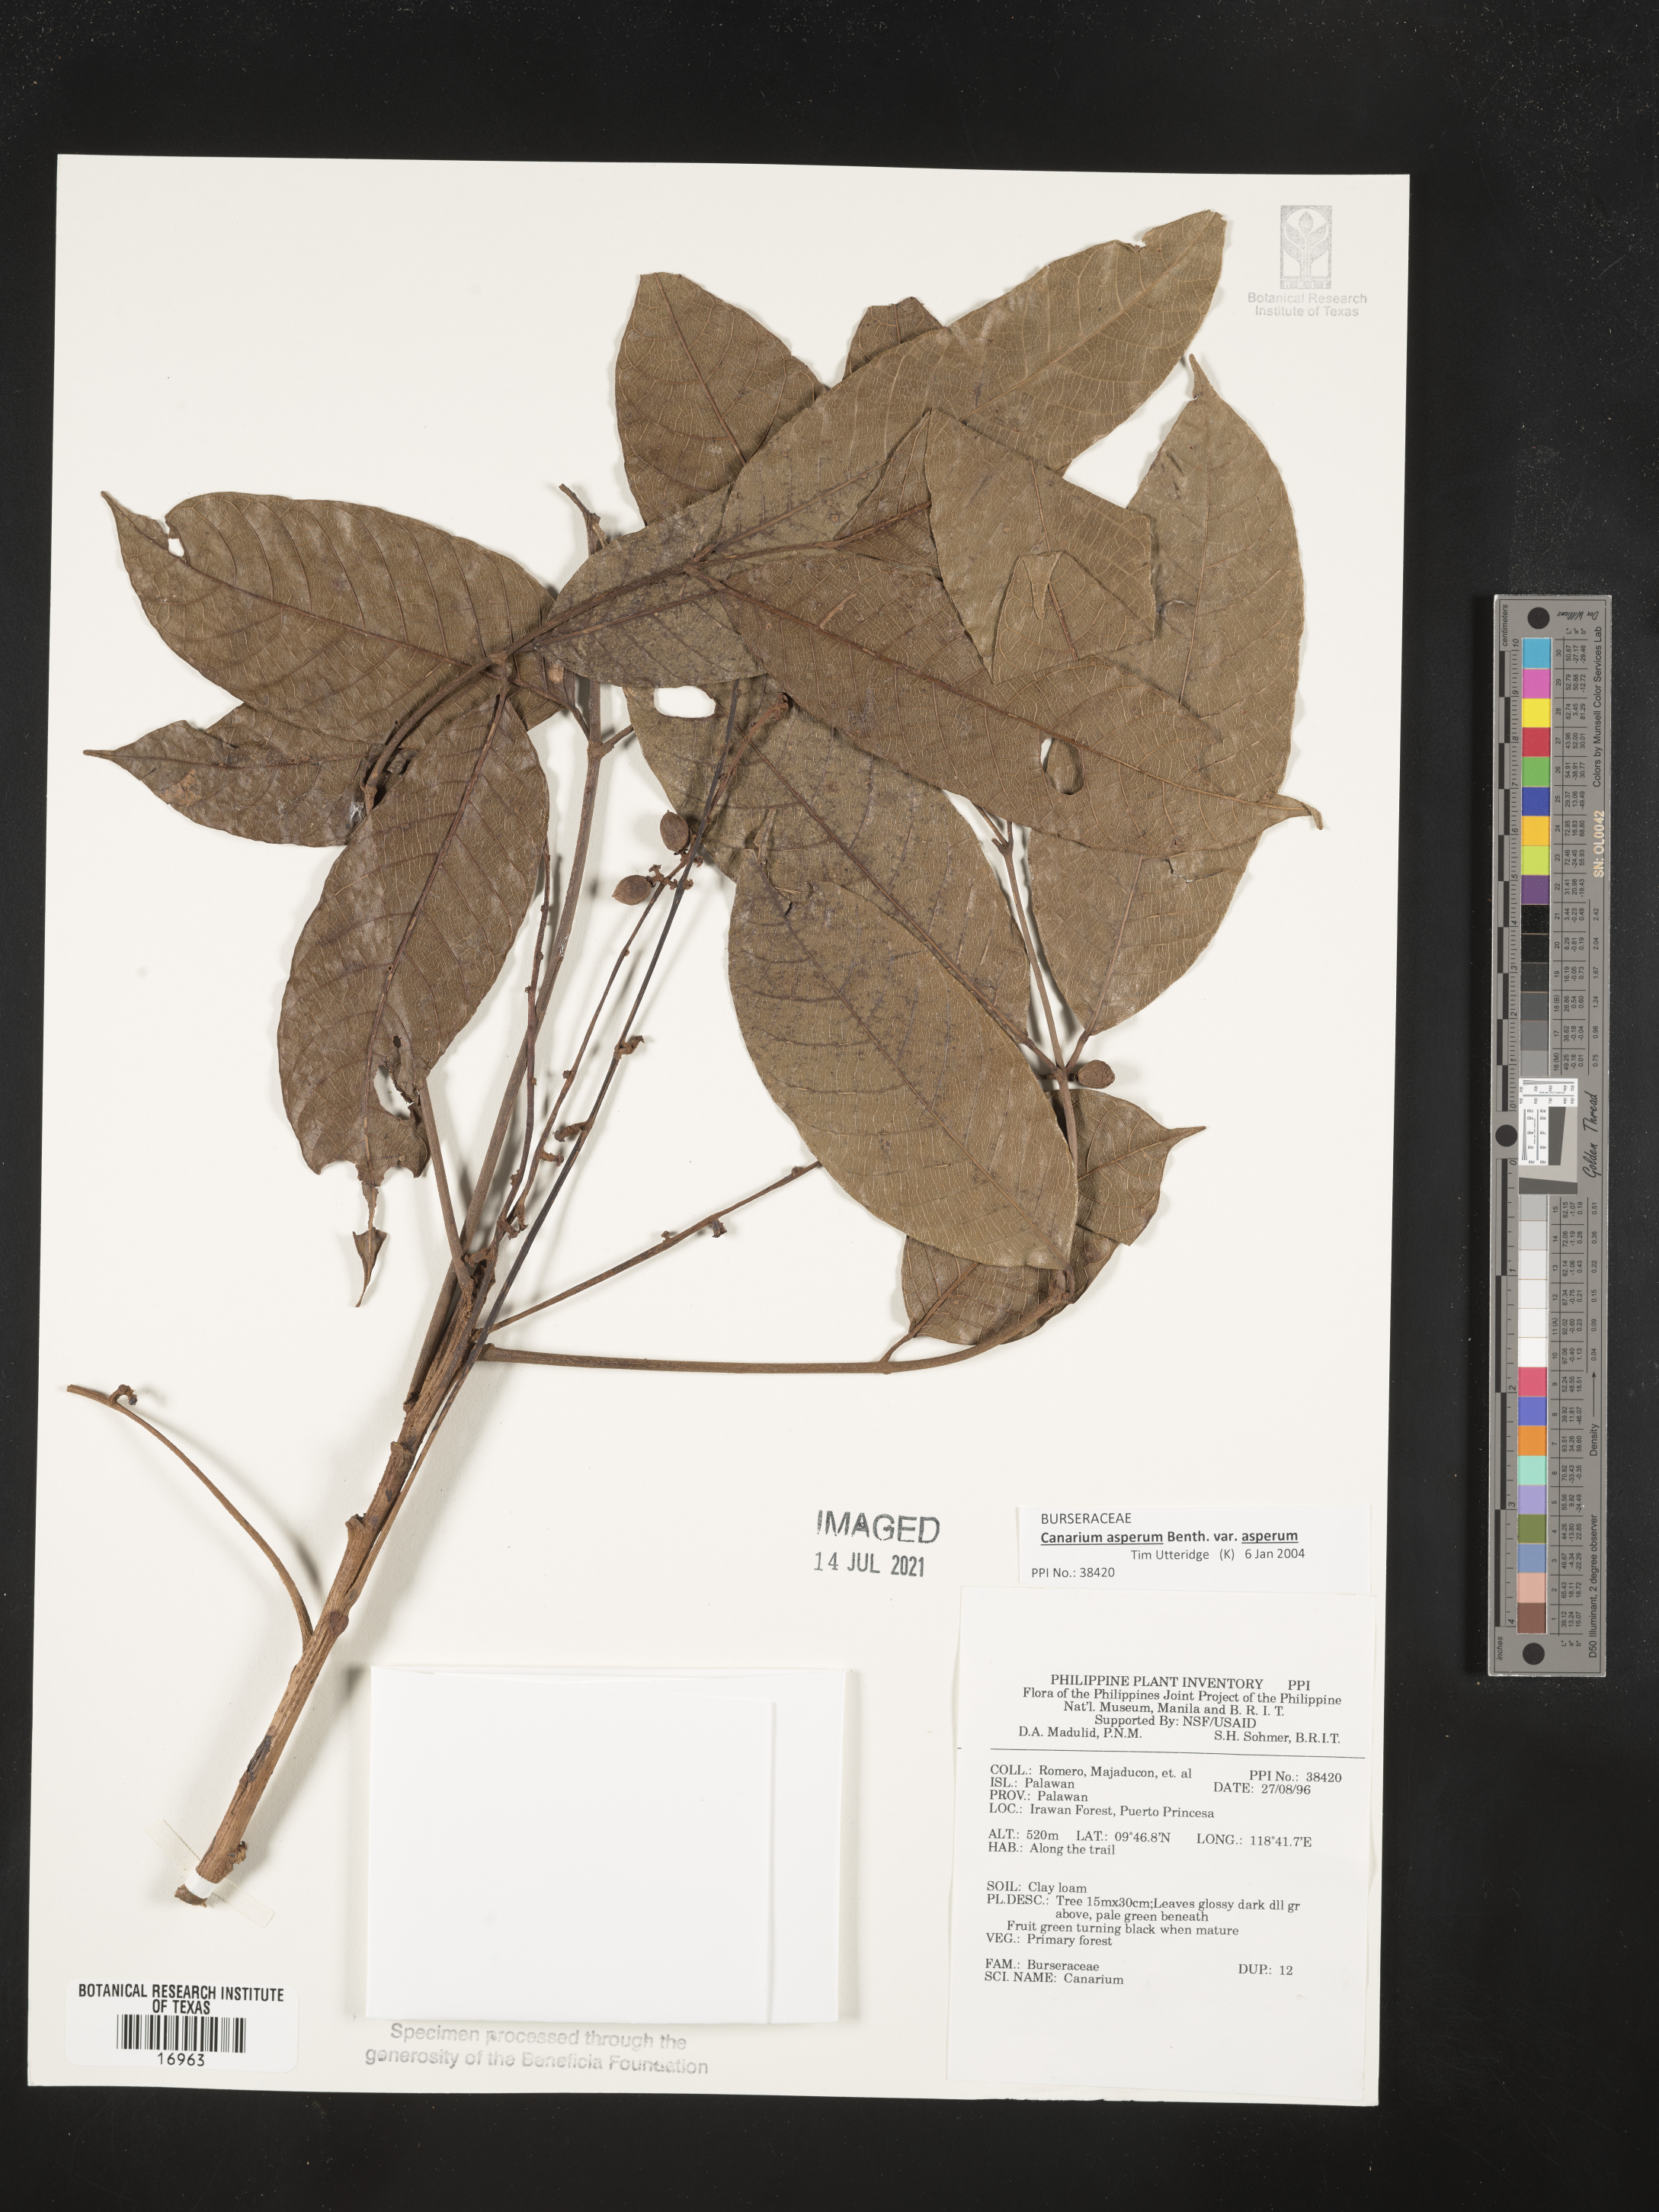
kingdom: Plantae
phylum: Tracheophyta
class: Magnoliopsida
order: Sapindales
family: Burseraceae
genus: Canarium
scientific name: Canarium asperum
